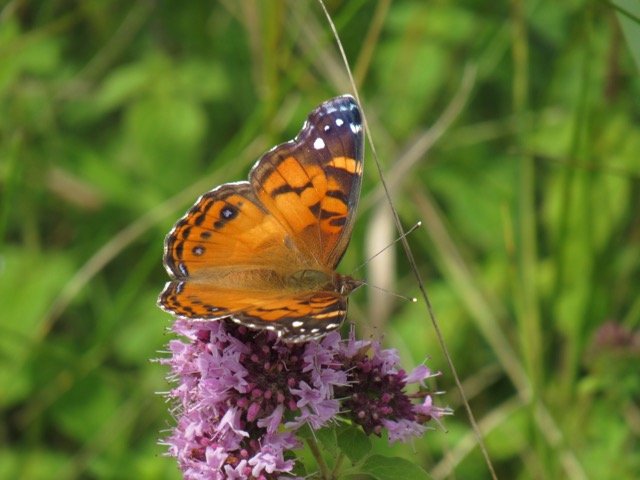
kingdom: Animalia
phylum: Arthropoda
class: Insecta
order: Lepidoptera
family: Nymphalidae
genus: Vanessa
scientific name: Vanessa virginiensis
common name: American Lady
